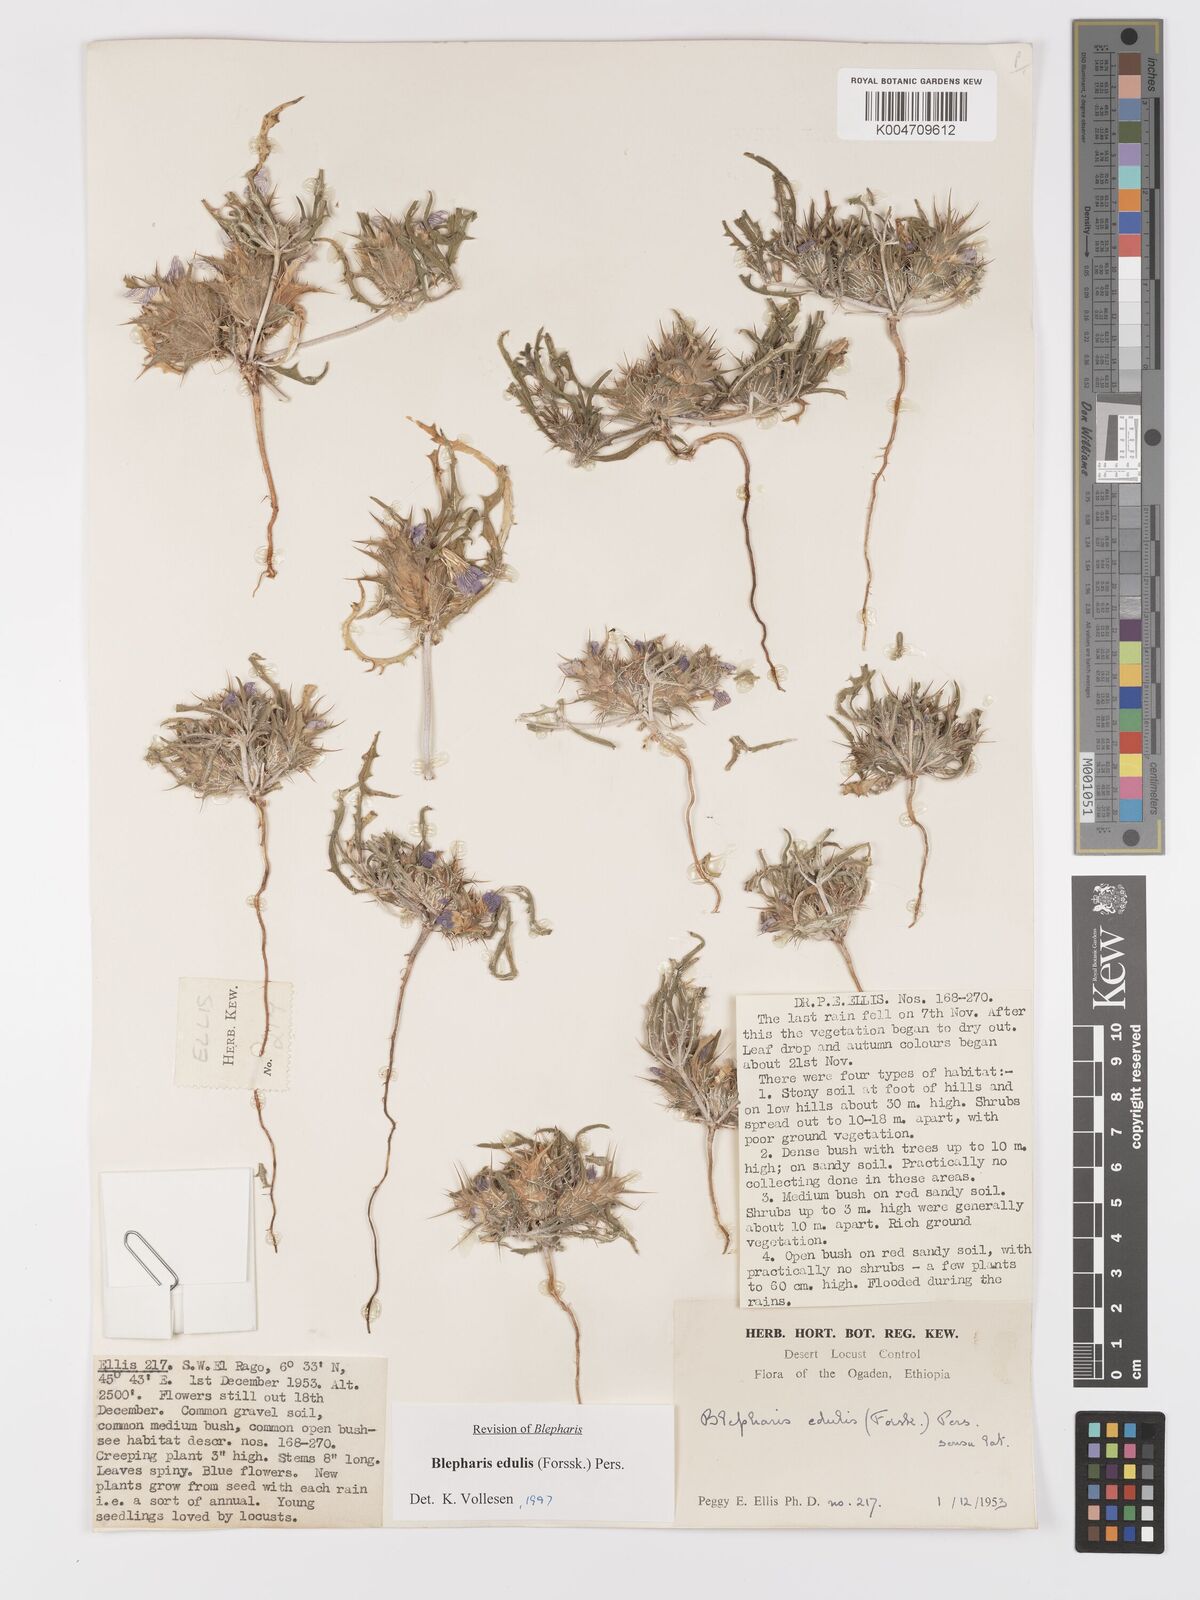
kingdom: Plantae
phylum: Tracheophyta
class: Magnoliopsida
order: Lamiales
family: Acanthaceae
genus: Blepharis
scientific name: Blepharis edulis
